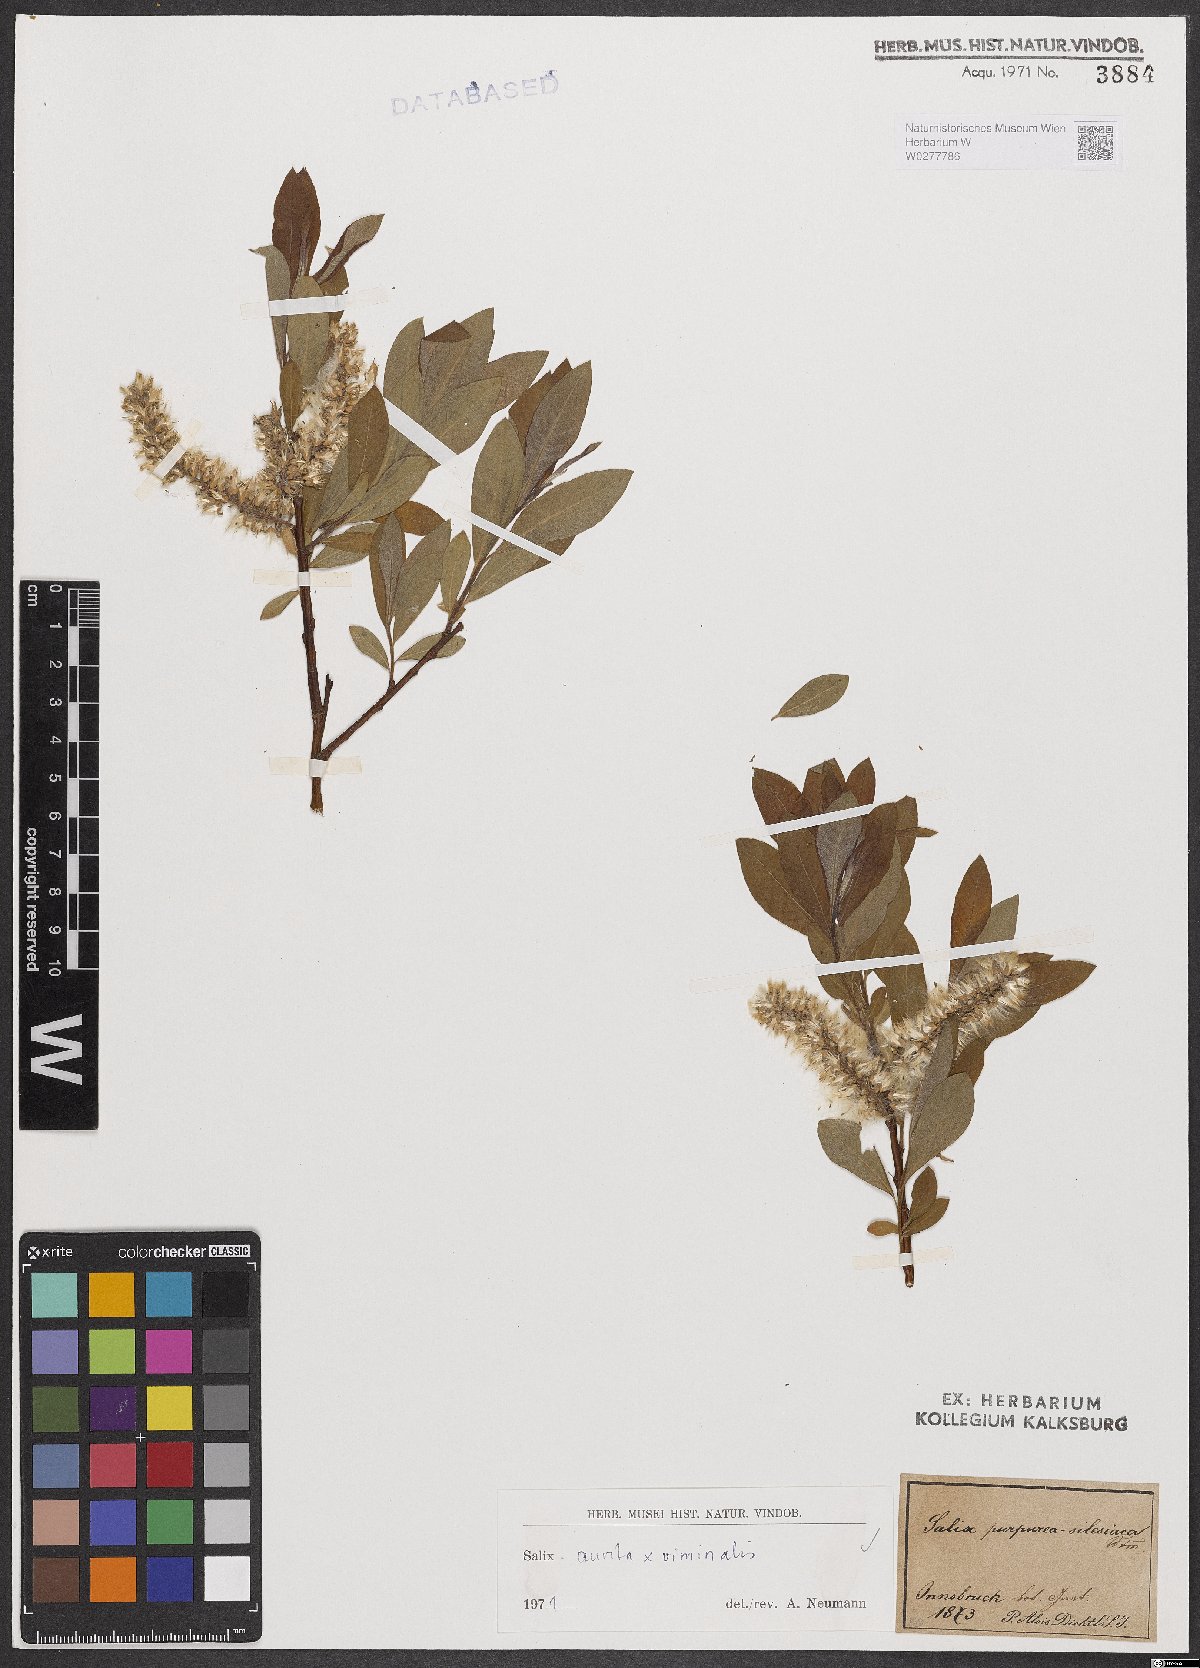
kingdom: Plantae
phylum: Tracheophyta
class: Magnoliopsida
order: Malpighiales
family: Salicaceae
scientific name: Salicaceae
